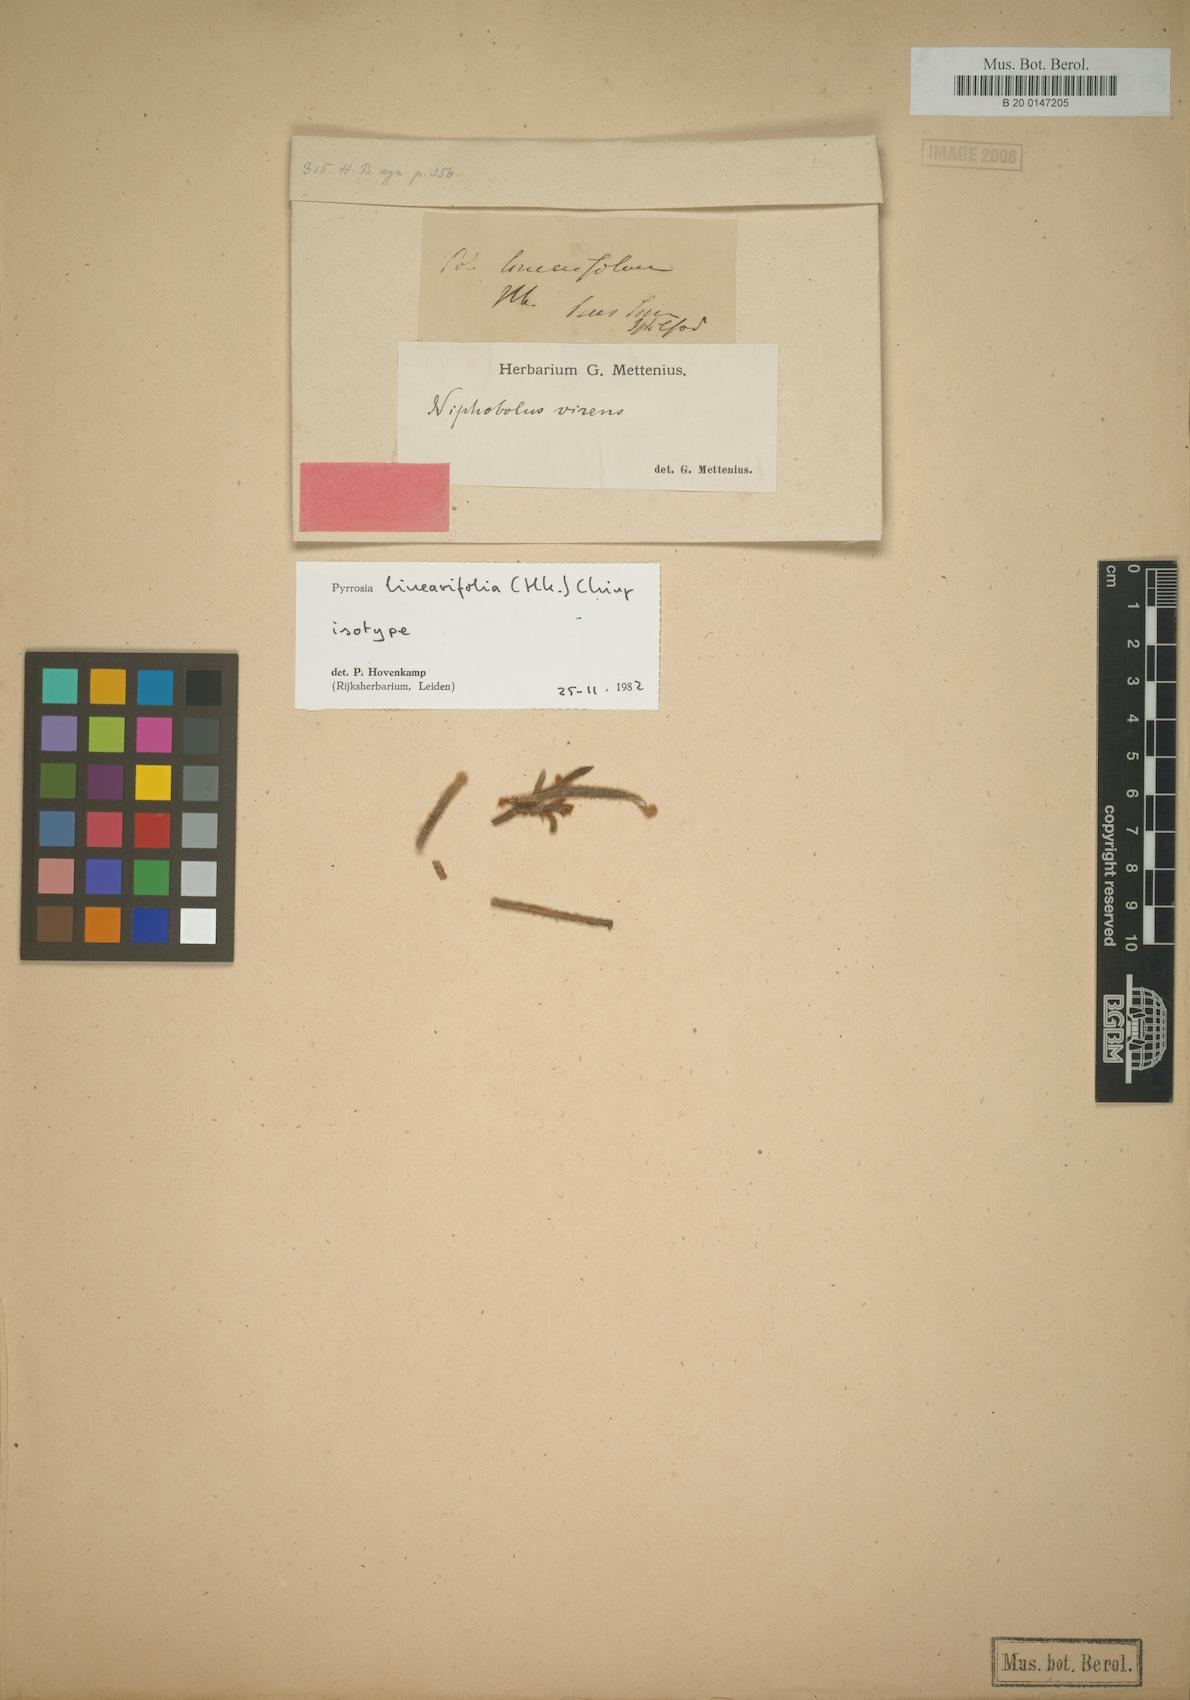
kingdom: Plantae
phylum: Tracheophyta
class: Polypodiopsida
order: Polypodiales
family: Polypodiaceae
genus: Pyrrosia
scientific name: Pyrrosia linearifolia
